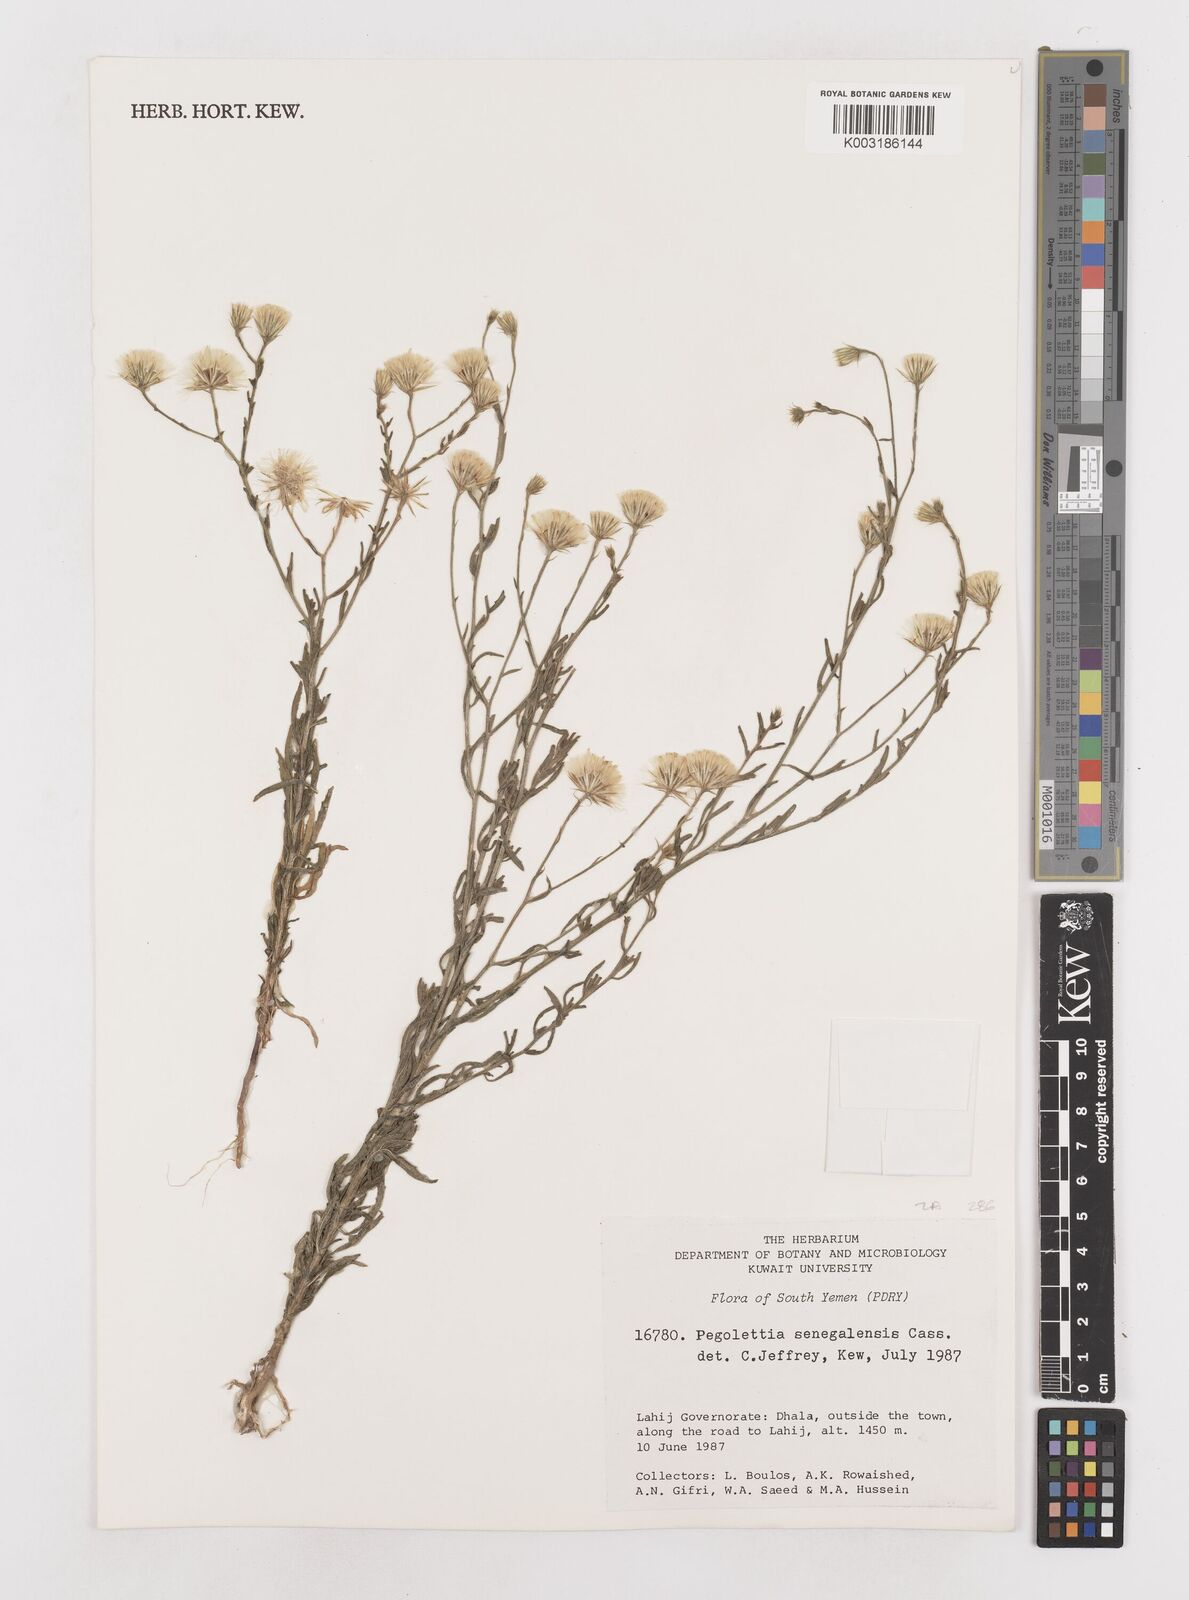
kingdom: Plantae
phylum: Tracheophyta
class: Magnoliopsida
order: Asterales
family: Asteraceae
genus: Pegolettia
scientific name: Pegolettia senegalensis
